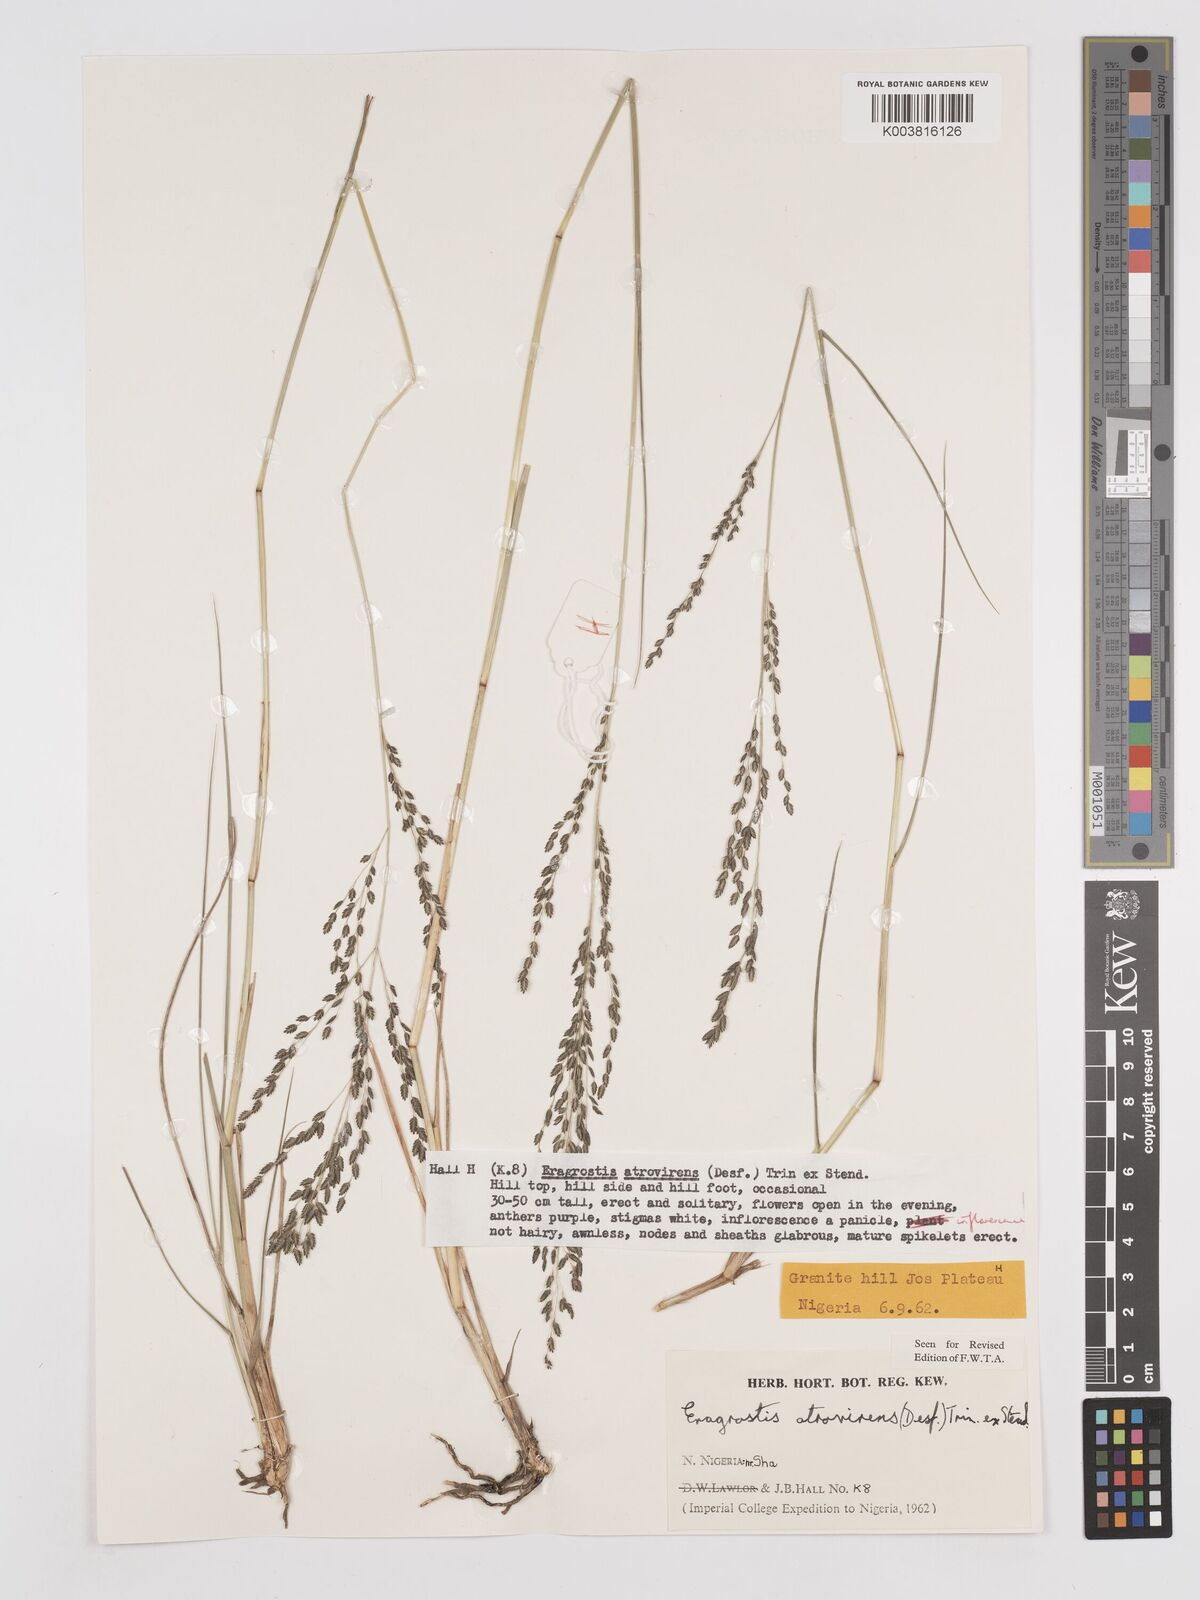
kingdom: Plantae
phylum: Tracheophyta
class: Liliopsida
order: Poales
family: Poaceae
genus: Eragrostis
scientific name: Eragrostis atrovirens
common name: Thalia lovegrass
